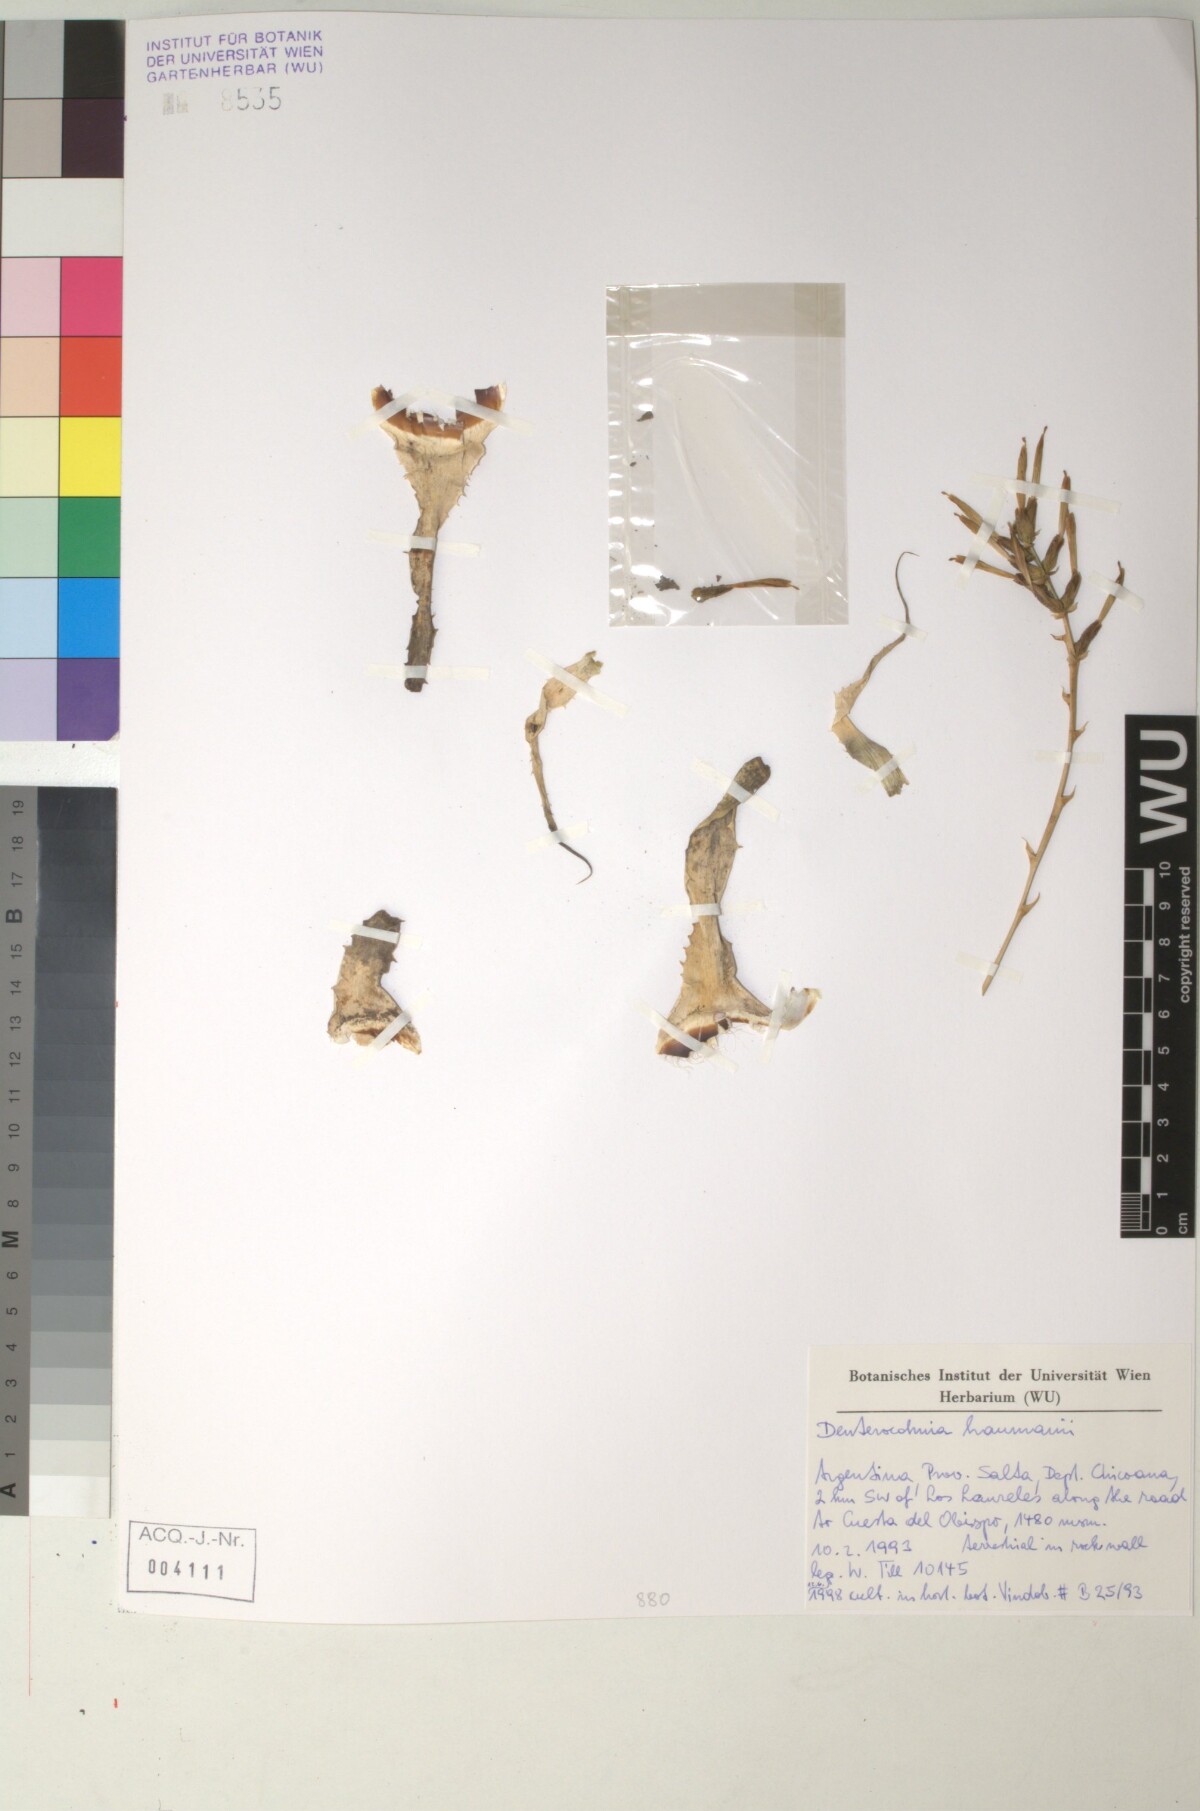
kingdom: Plantae
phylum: Tracheophyta
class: Liliopsida
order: Poales
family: Bromeliaceae
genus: Deuterocohnia
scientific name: Deuterocohnia haumanii
